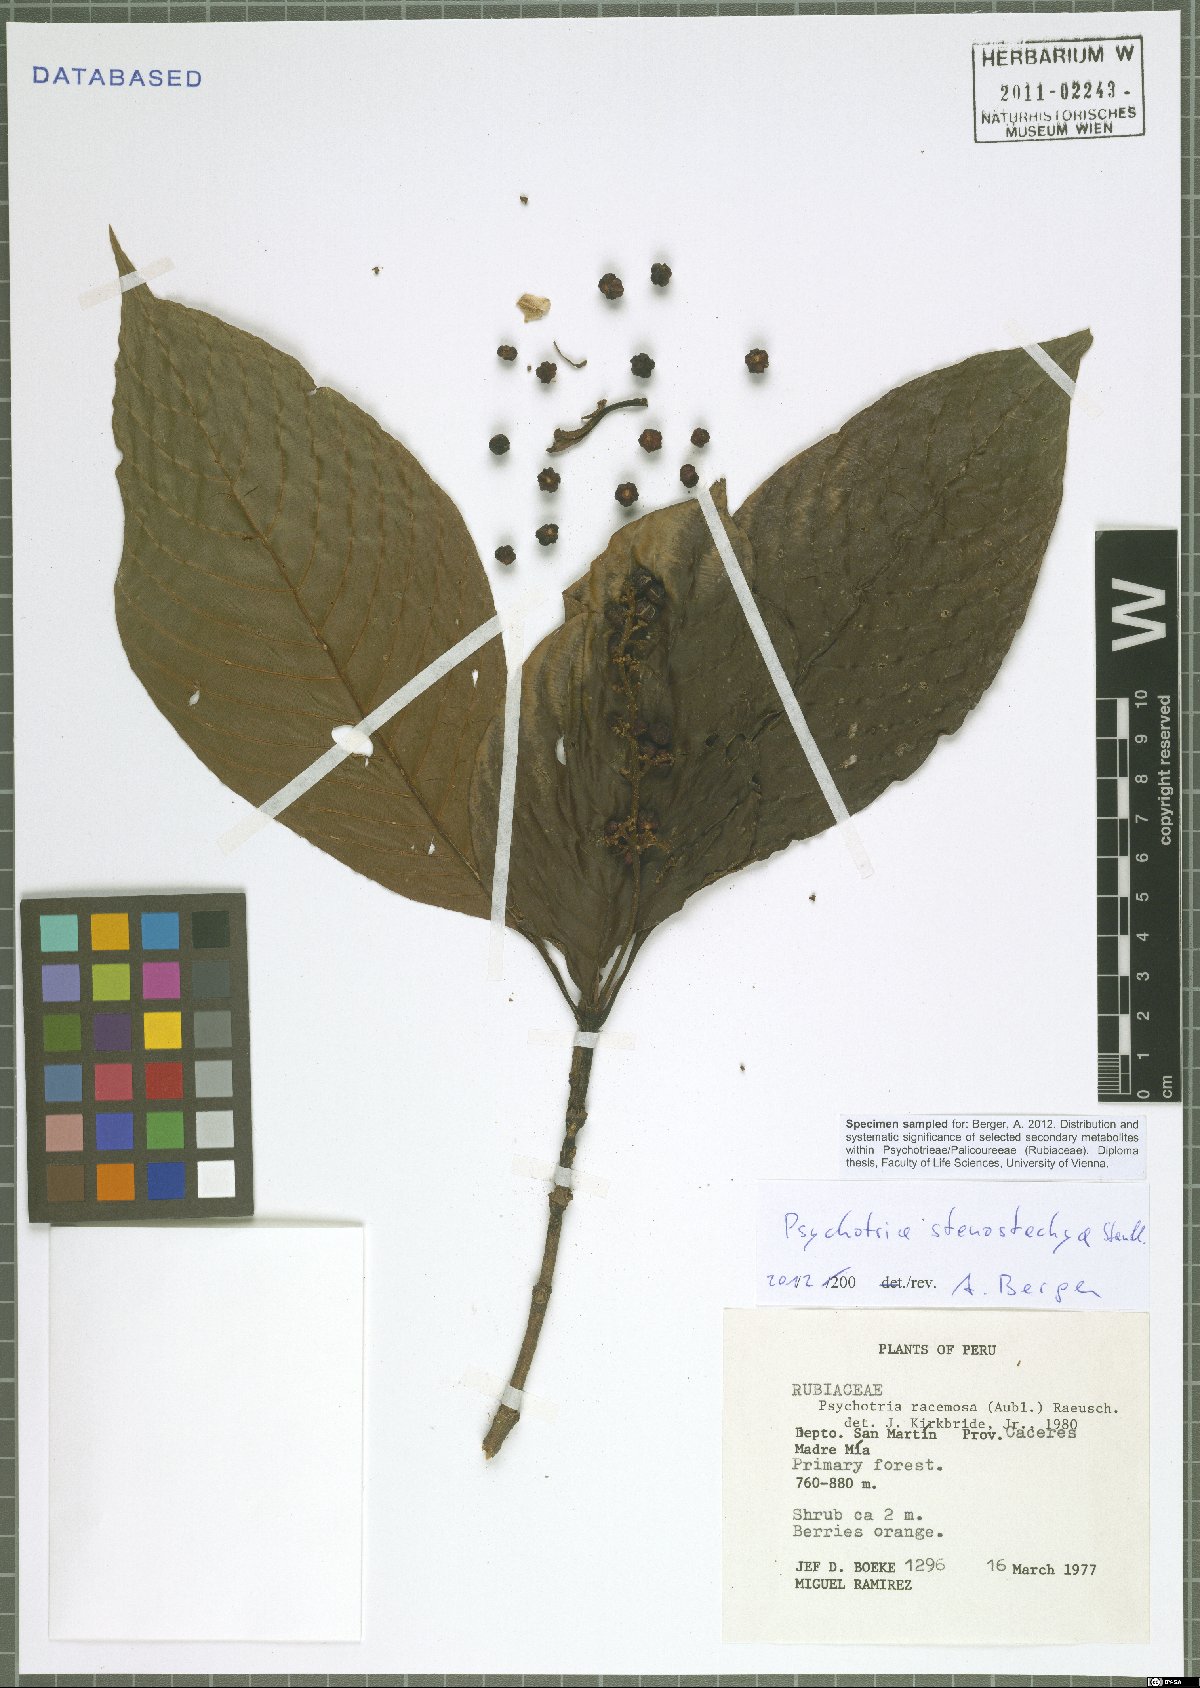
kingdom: Plantae
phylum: Tracheophyta
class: Magnoliopsida
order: Gentianales
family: Rubiaceae
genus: Palicourea
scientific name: Palicourea stenostachya
